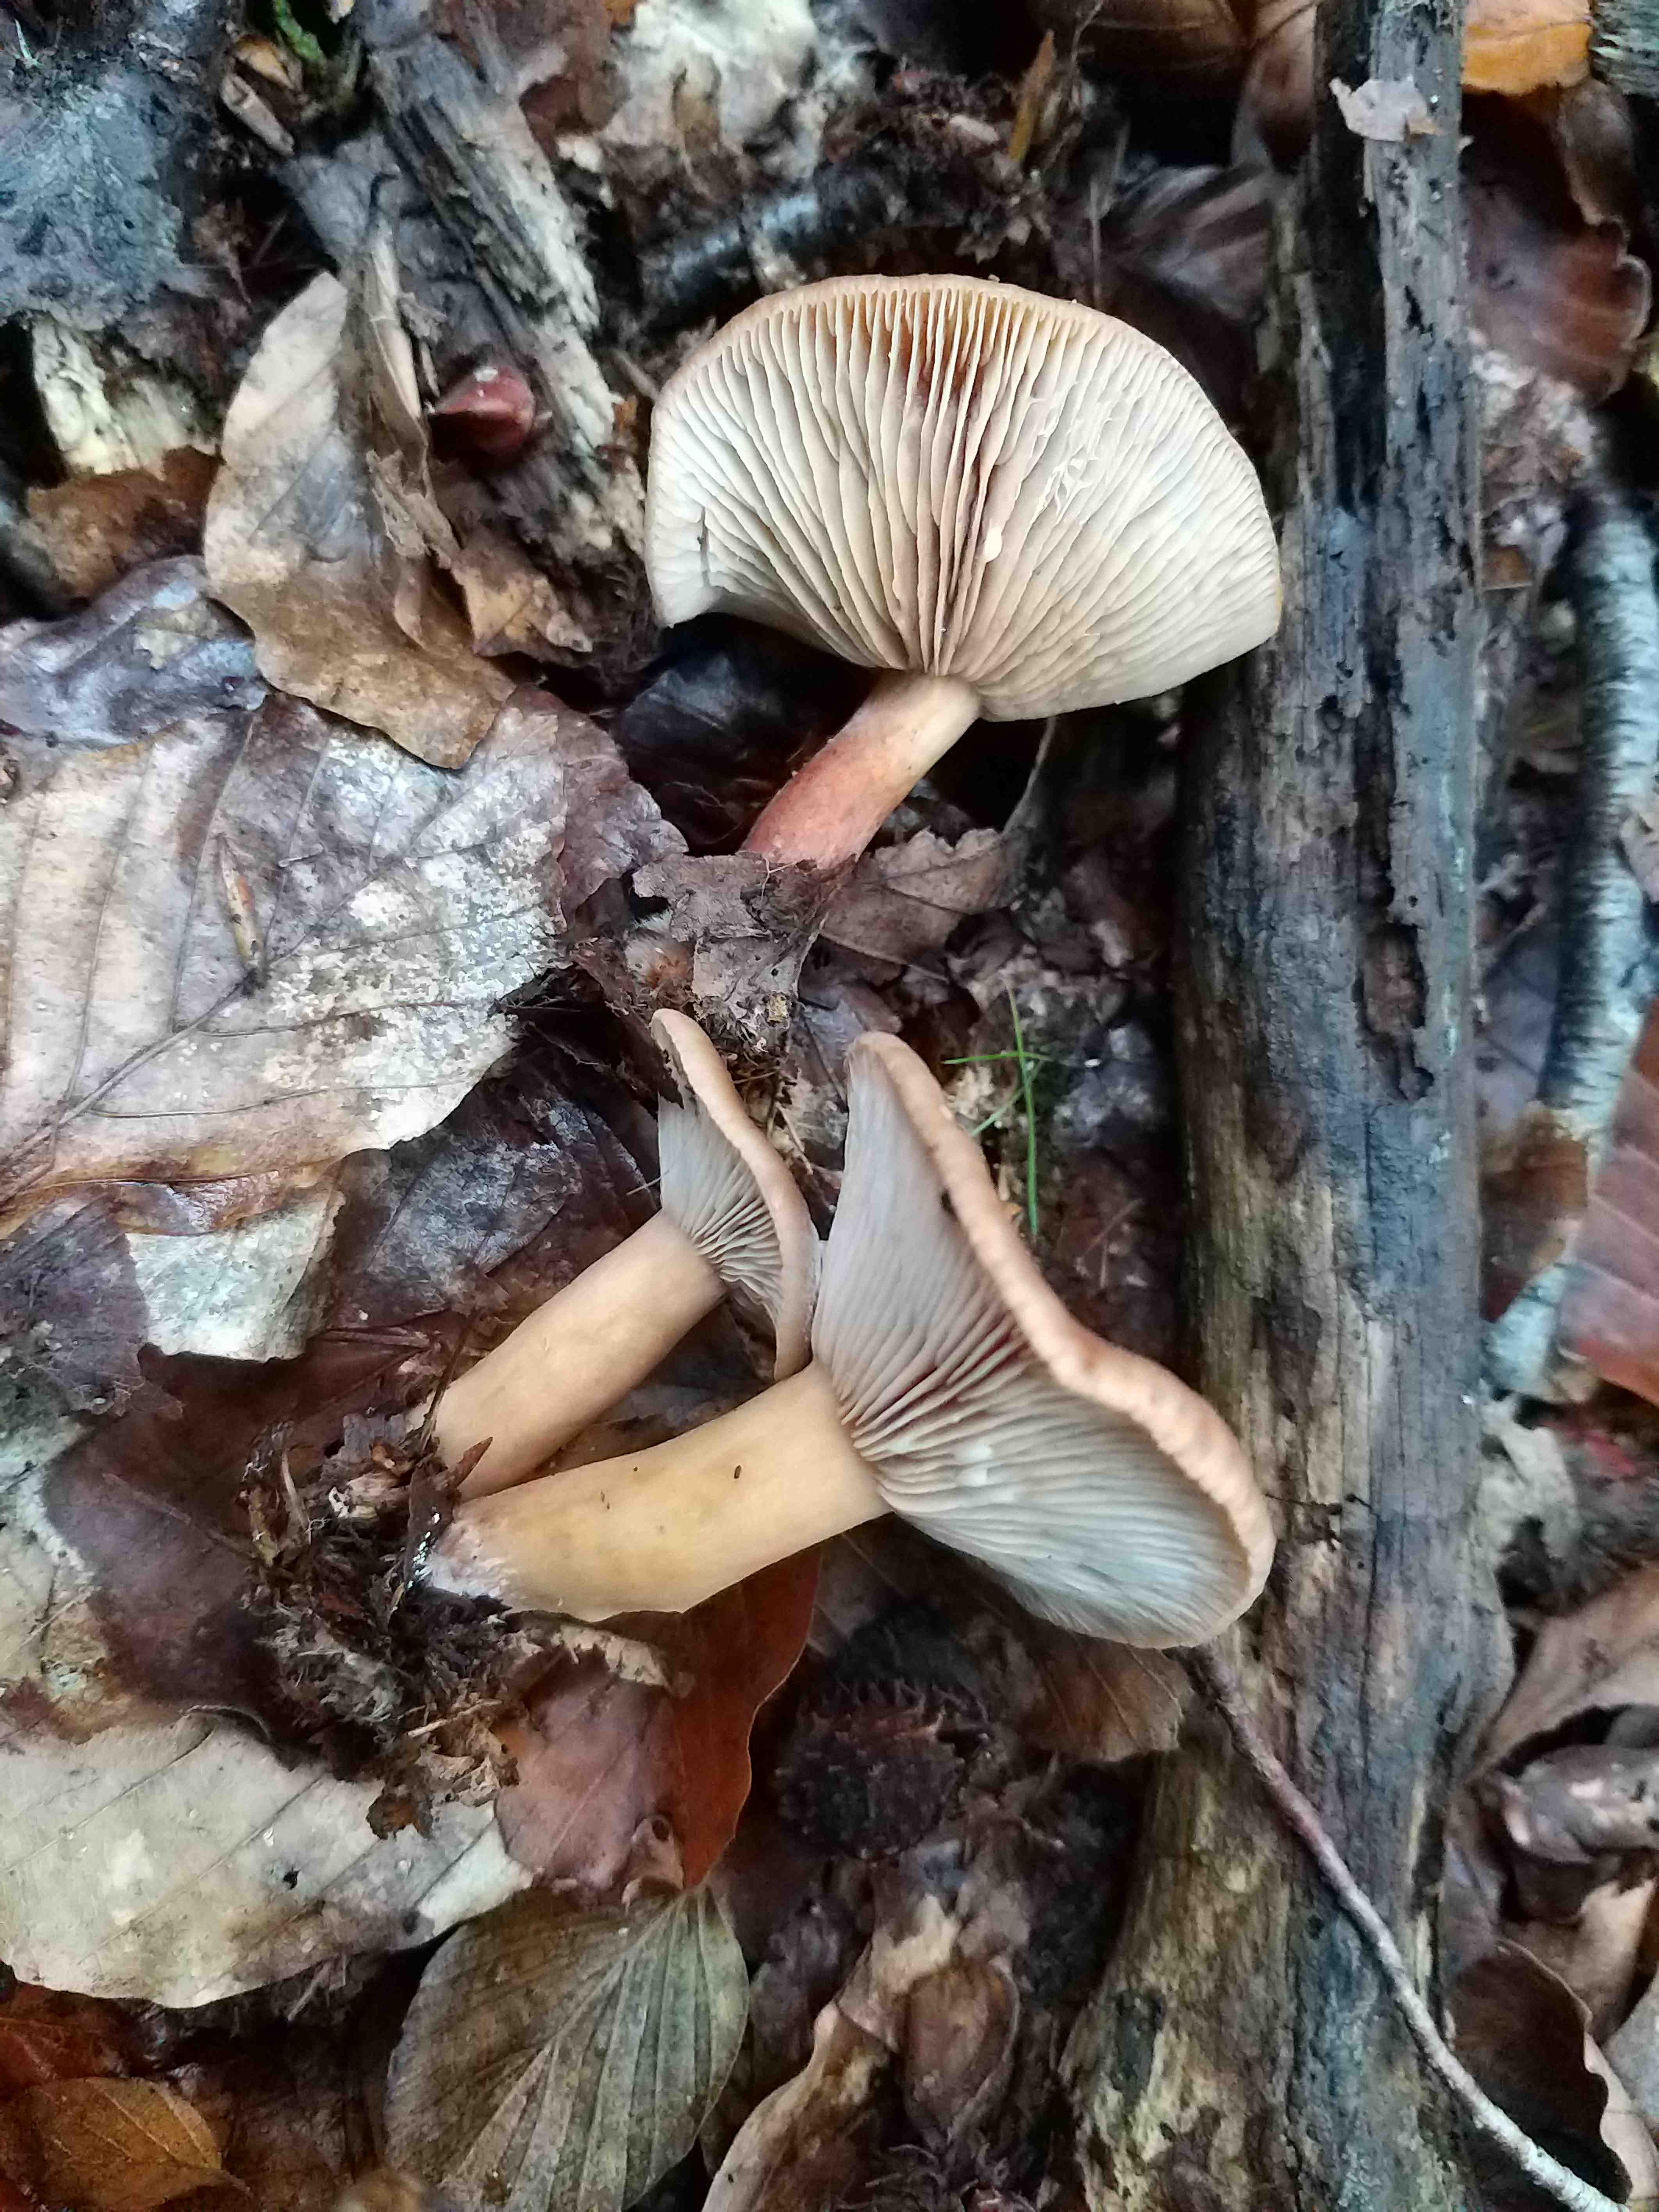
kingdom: Fungi
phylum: Basidiomycota
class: Agaricomycetes
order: Russulales
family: Russulaceae
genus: Lactarius
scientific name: Lactarius subdulcis
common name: sødlig mælkehat
